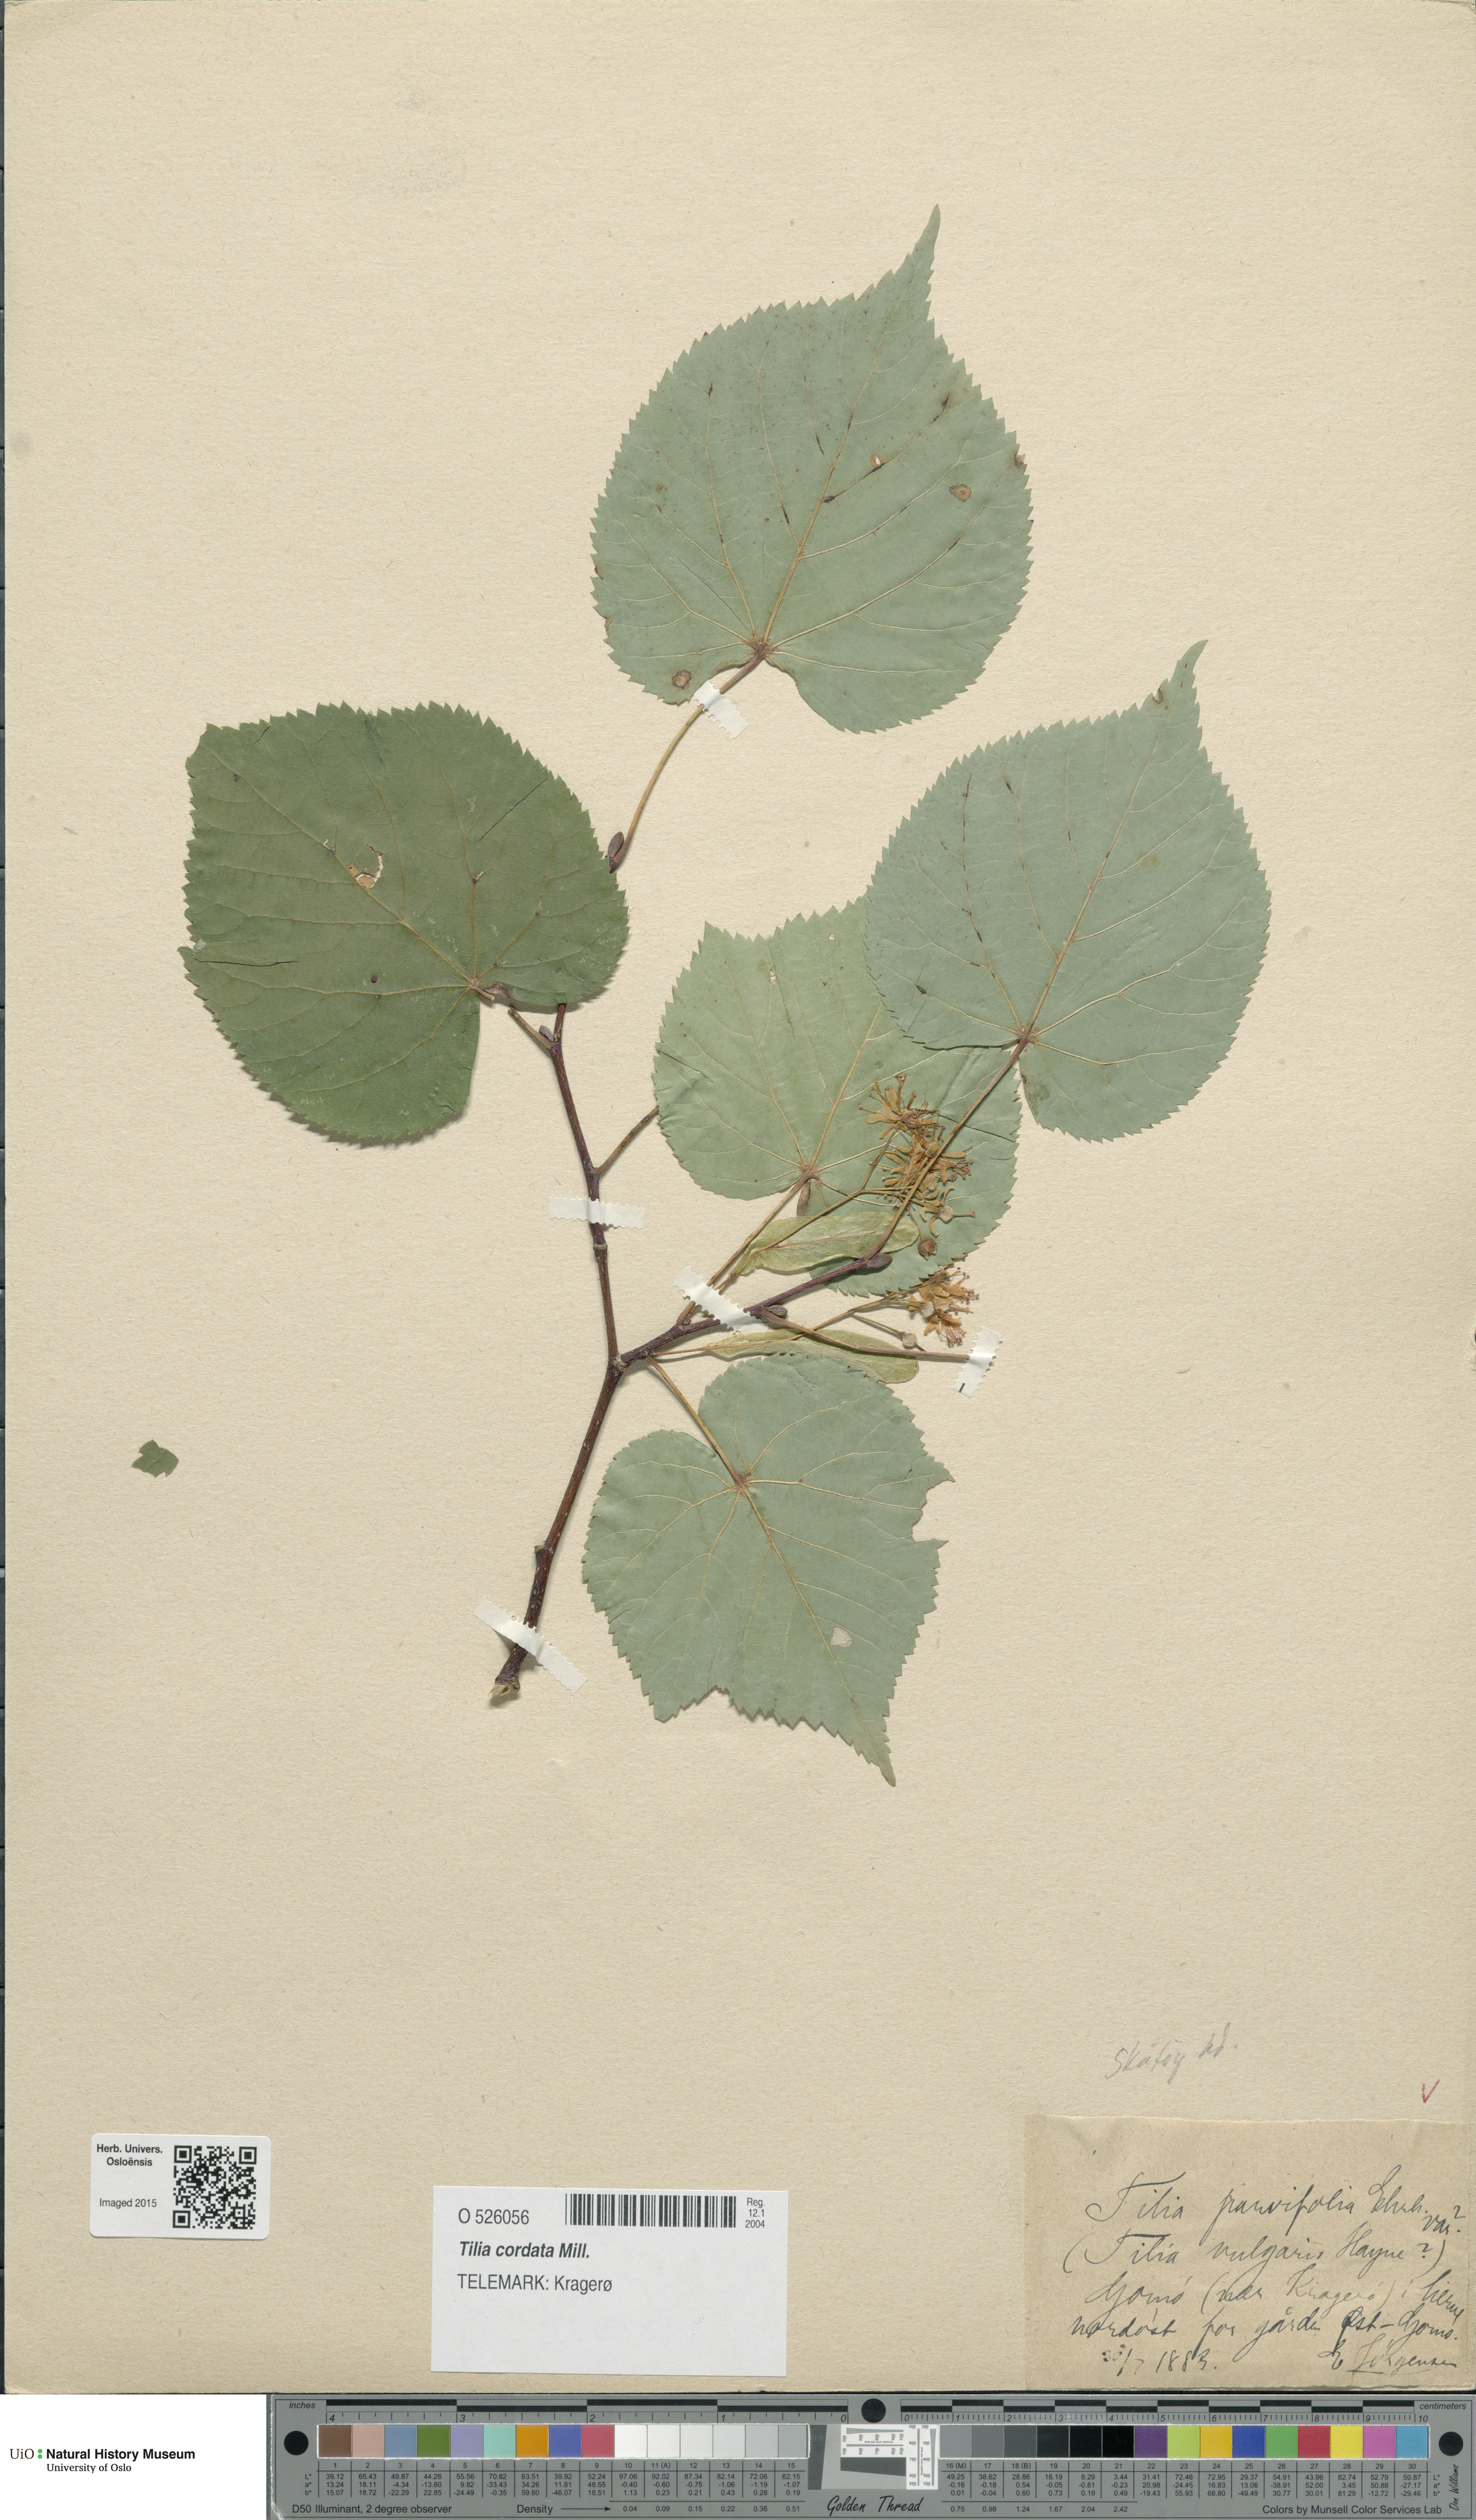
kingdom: Plantae
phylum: Tracheophyta
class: Magnoliopsida
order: Malvales
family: Malvaceae
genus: Tilia
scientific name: Tilia cordata
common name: Small-leaved lime
